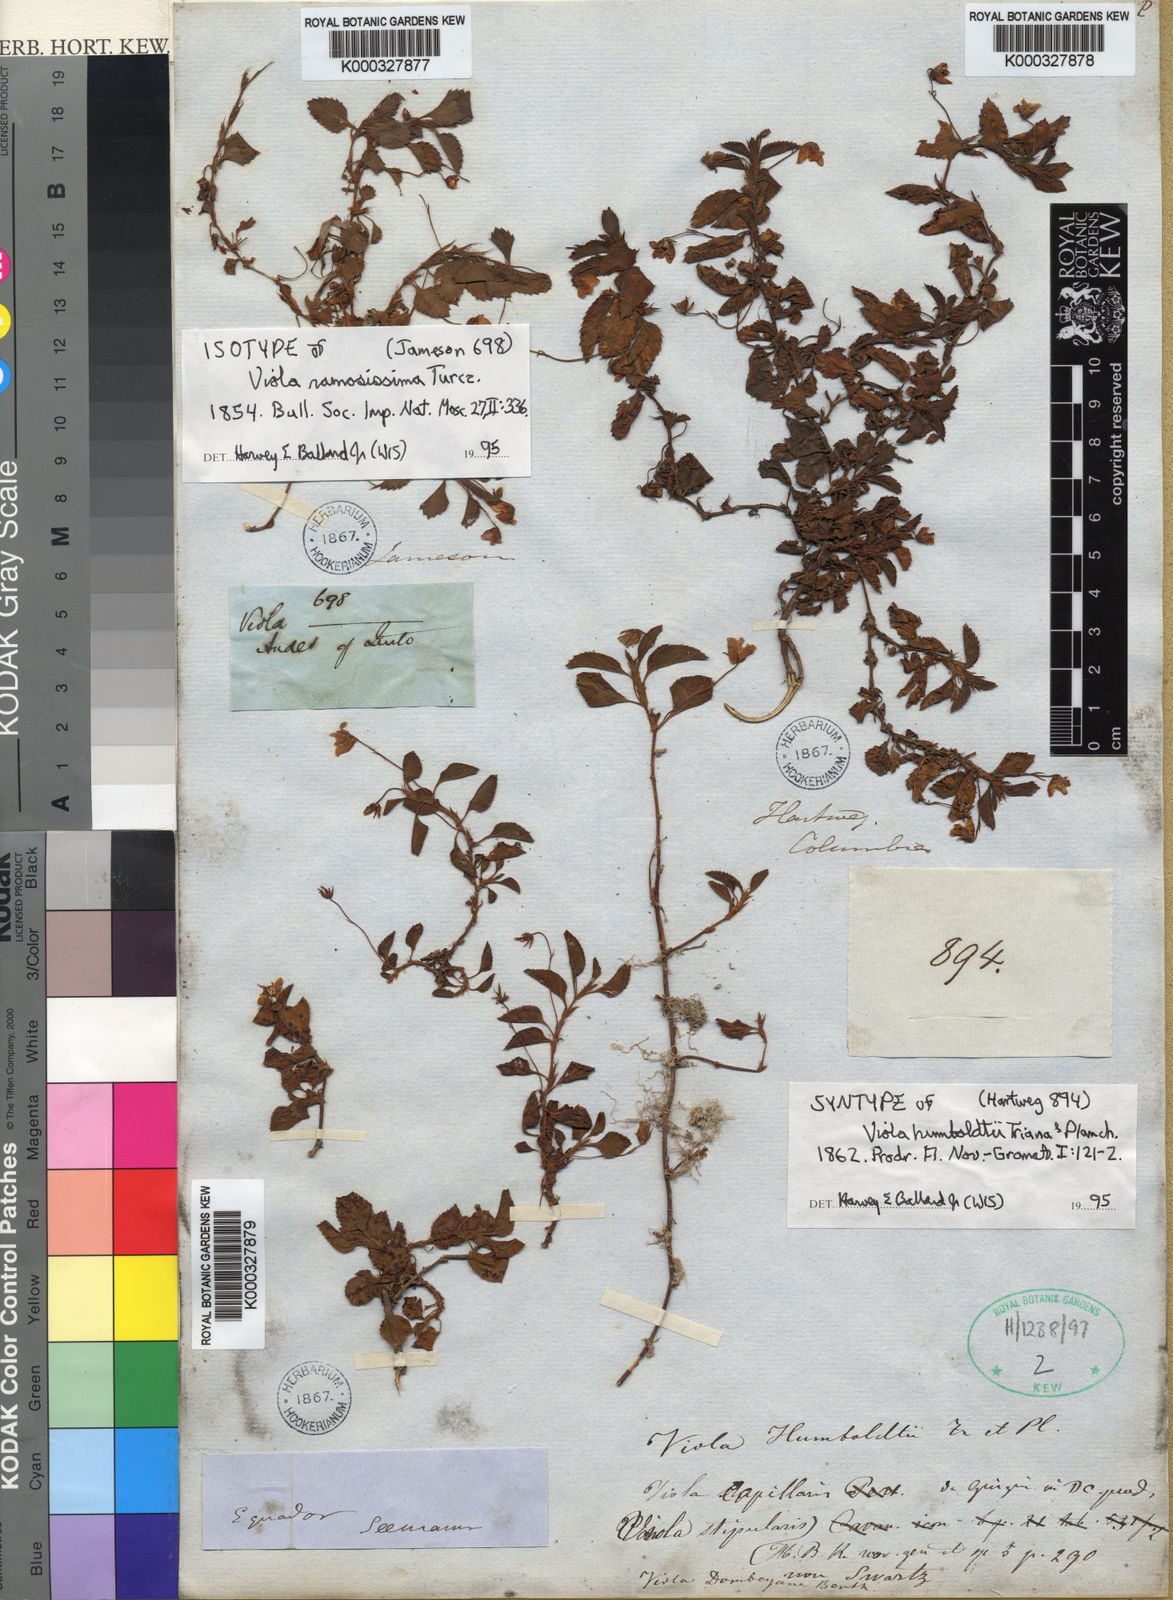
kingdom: Plantae
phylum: Tracheophyta
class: Magnoliopsida
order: Malpighiales
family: Violaceae
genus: Viola
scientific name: Viola dombeyana
